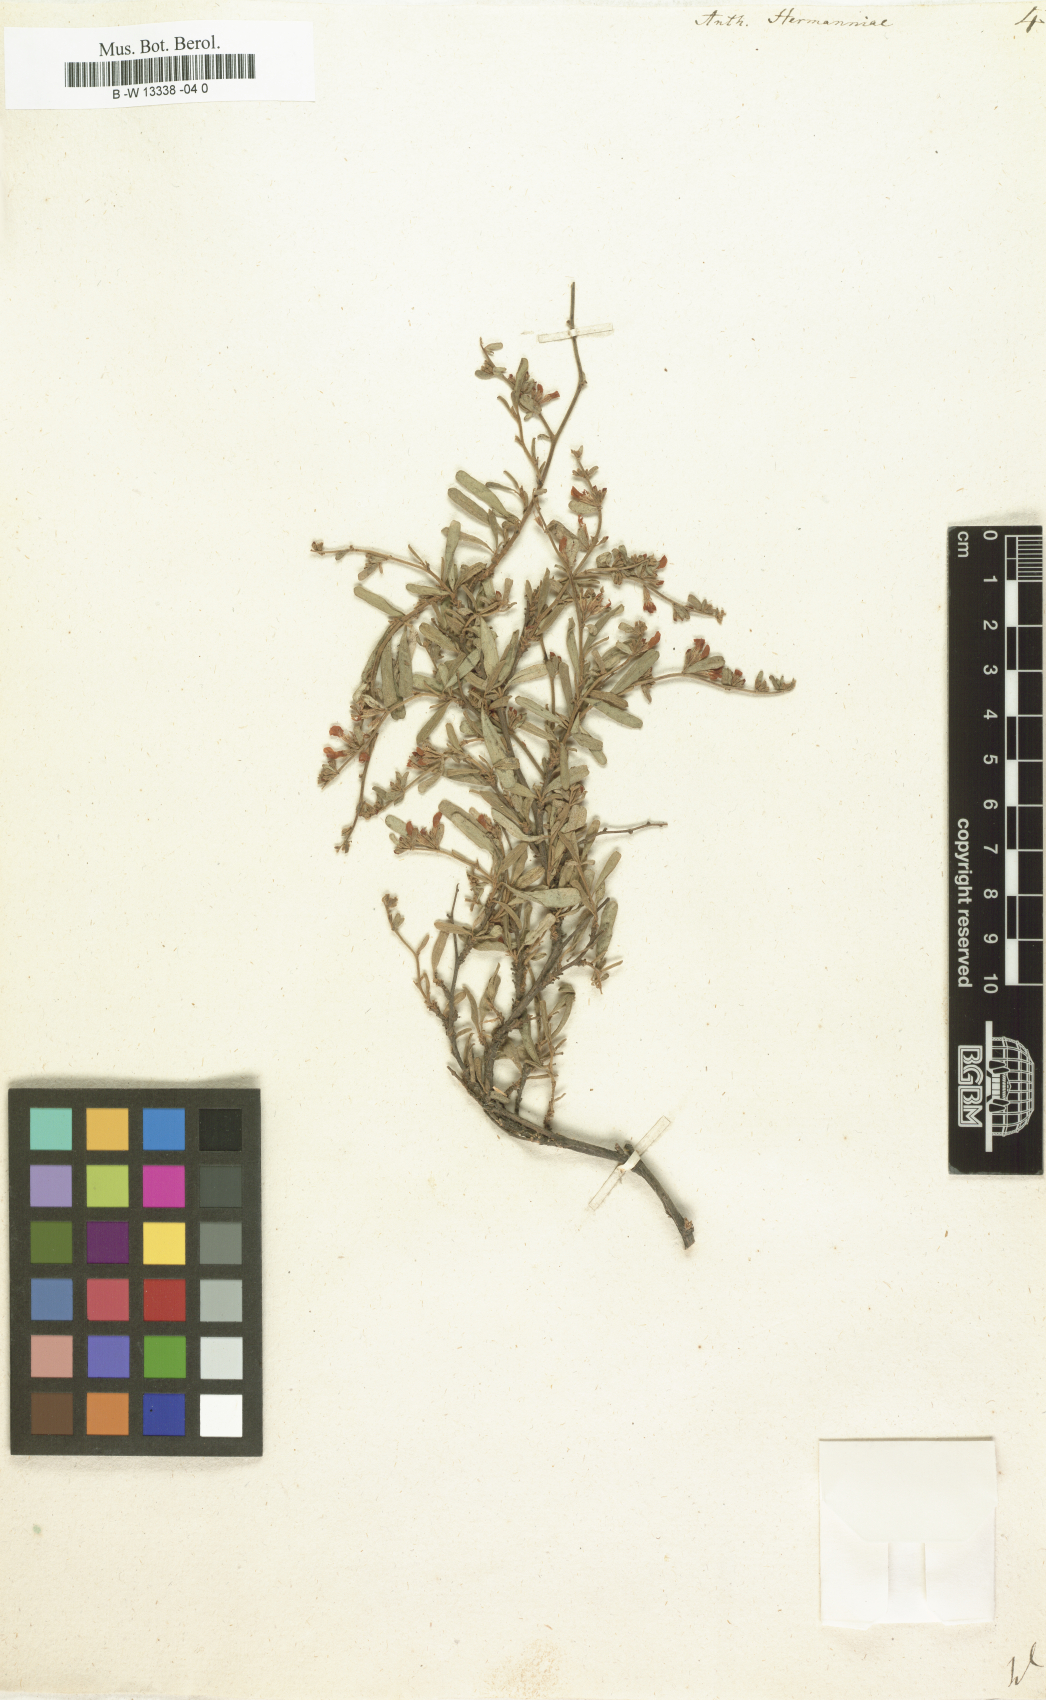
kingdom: Plantae
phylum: Tracheophyta
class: Magnoliopsida
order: Fabales
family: Fabaceae
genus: Anthyllis
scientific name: Anthyllis hermanniae
